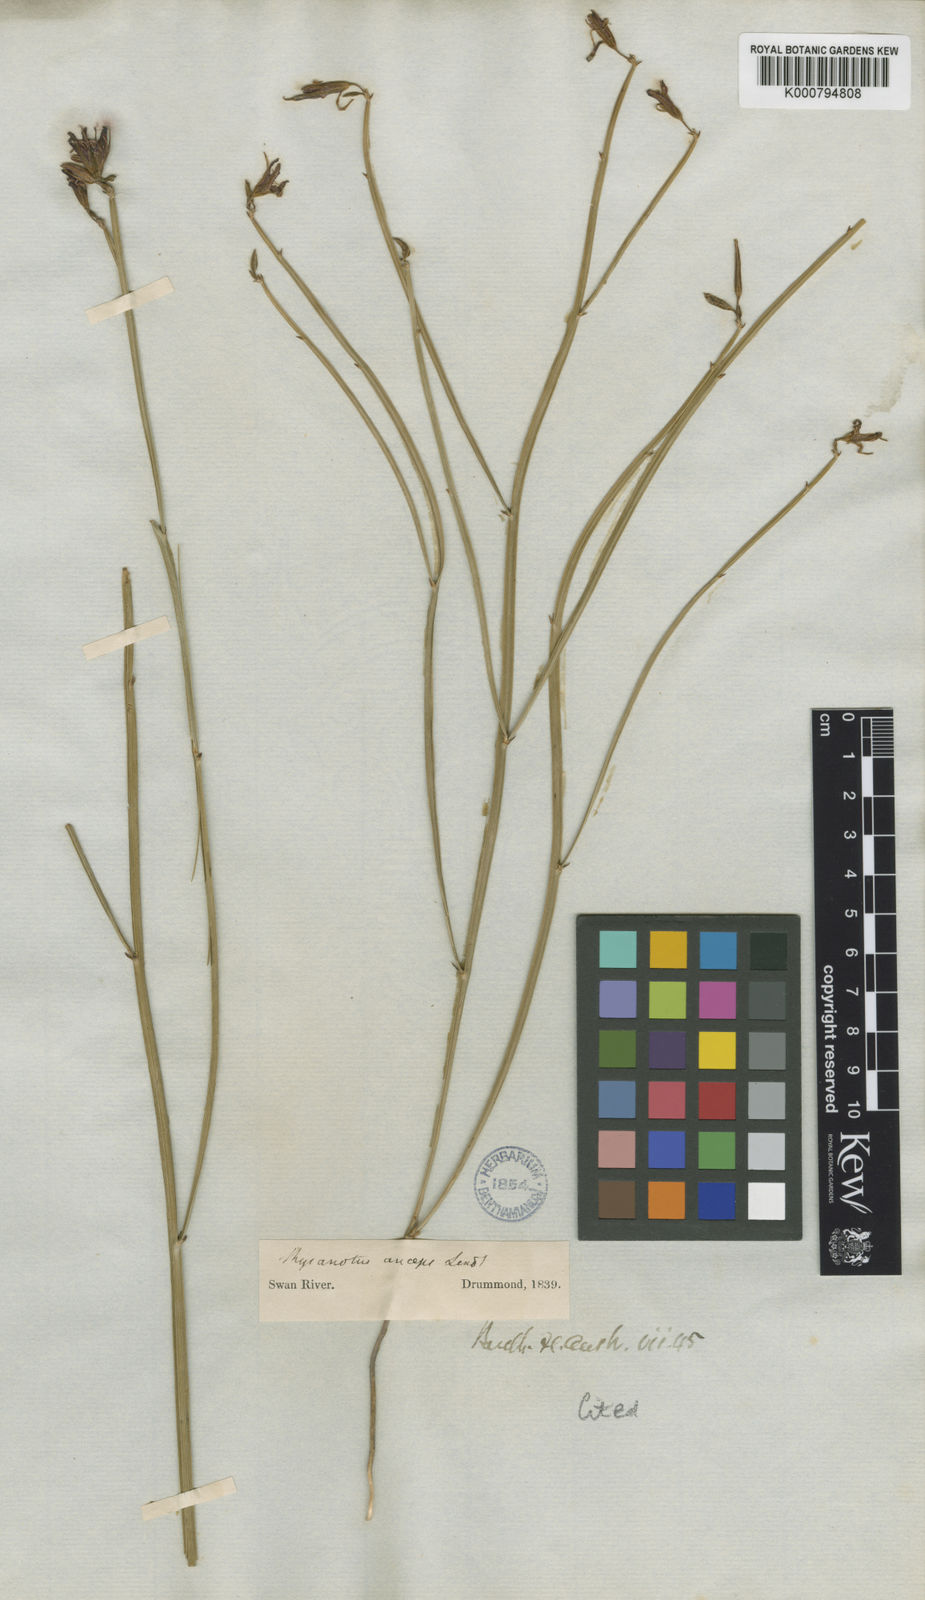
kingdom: Plantae
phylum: Tracheophyta
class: Liliopsida
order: Asparagales
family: Asparagaceae
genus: Thysanotus
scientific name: Thysanotus
